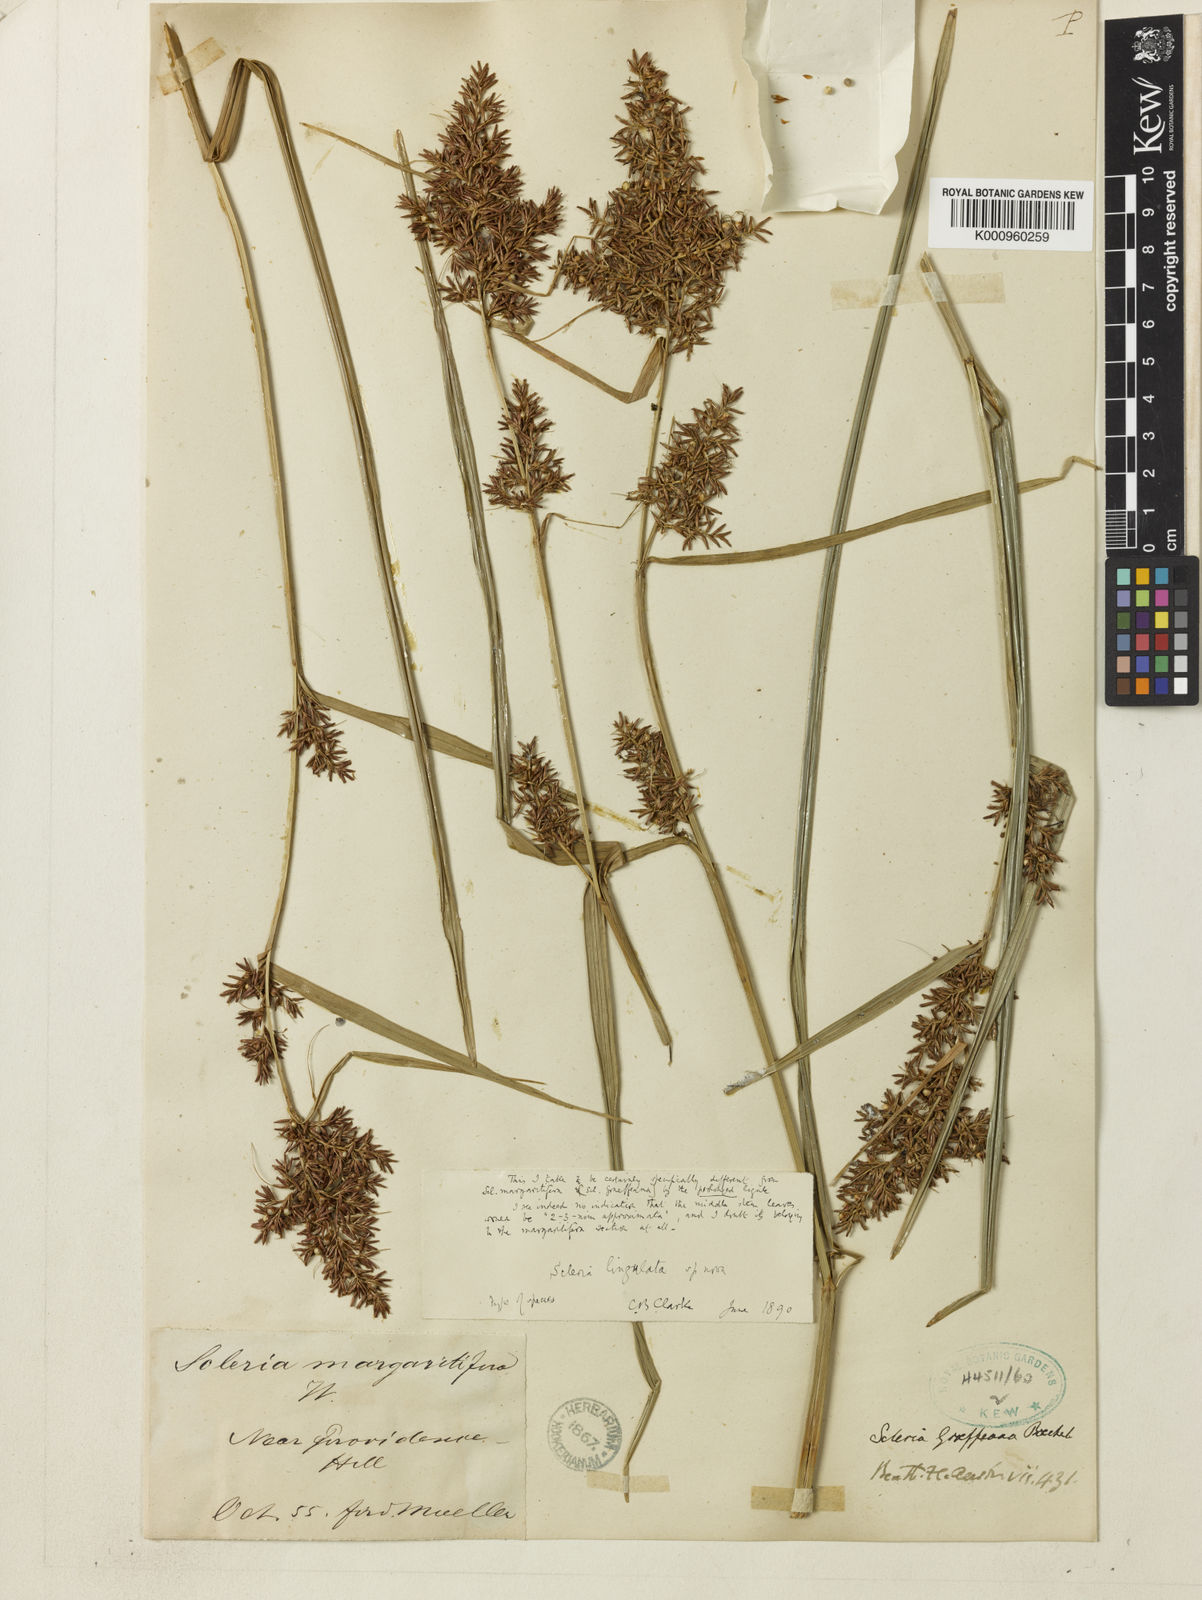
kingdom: Plantae
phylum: Tracheophyta
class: Liliopsida
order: Poales
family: Cyperaceae
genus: Scleria
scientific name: Scleria lingulata
